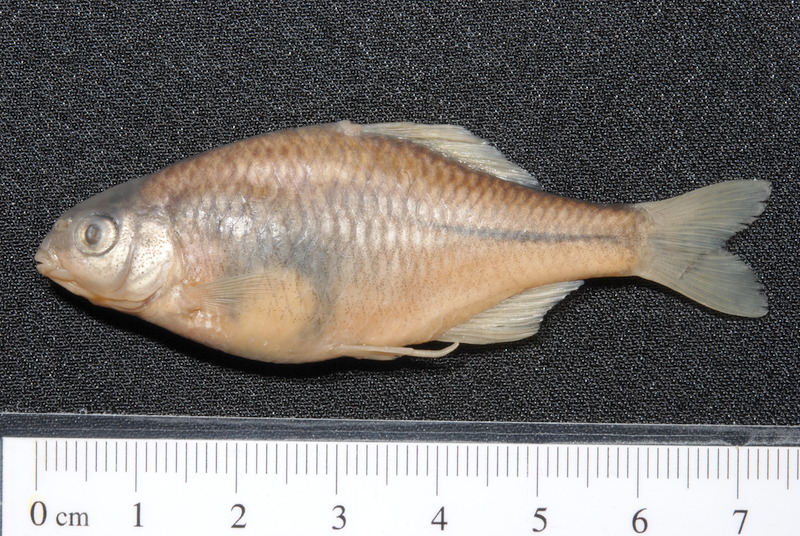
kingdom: Animalia
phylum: Chordata
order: Cypriniformes
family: Cyprinidae
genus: Rhodeus
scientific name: Rhodeus amarus
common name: Bitterling
